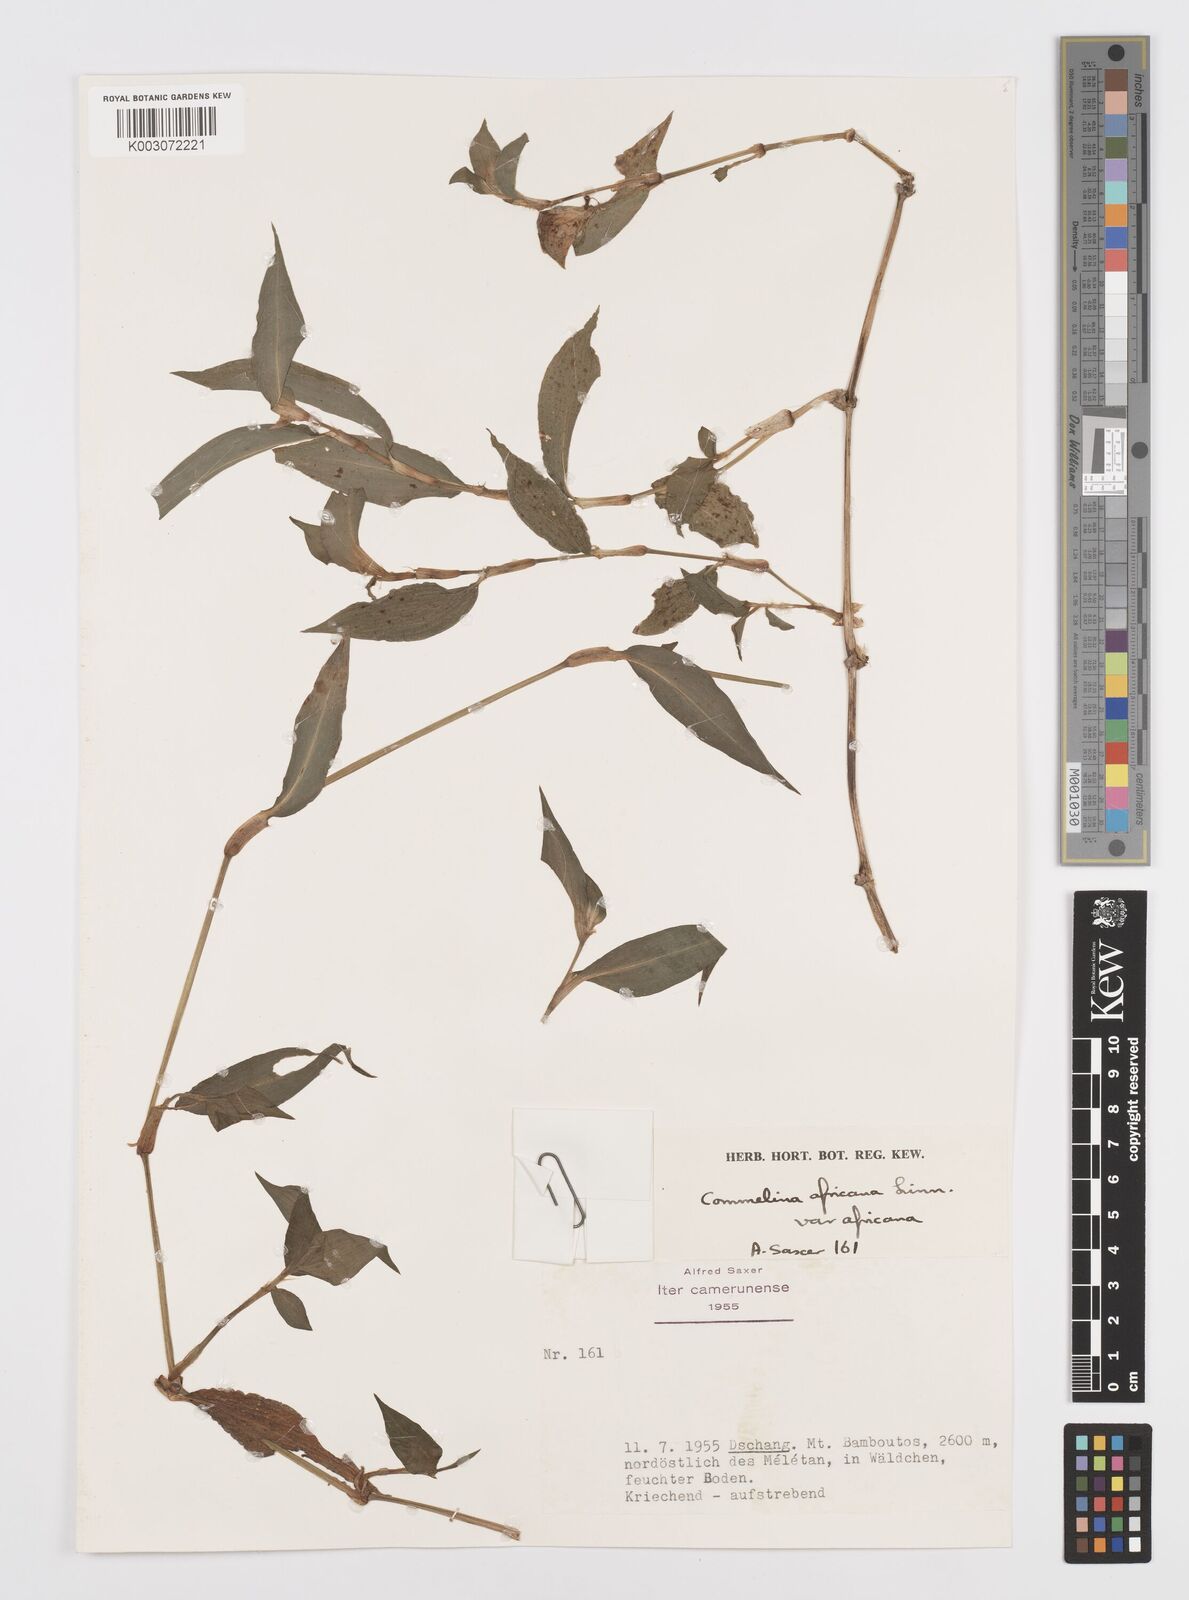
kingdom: Plantae
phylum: Tracheophyta
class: Liliopsida
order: Commelinales
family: Commelinaceae
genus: Commelina
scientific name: Commelina africana
